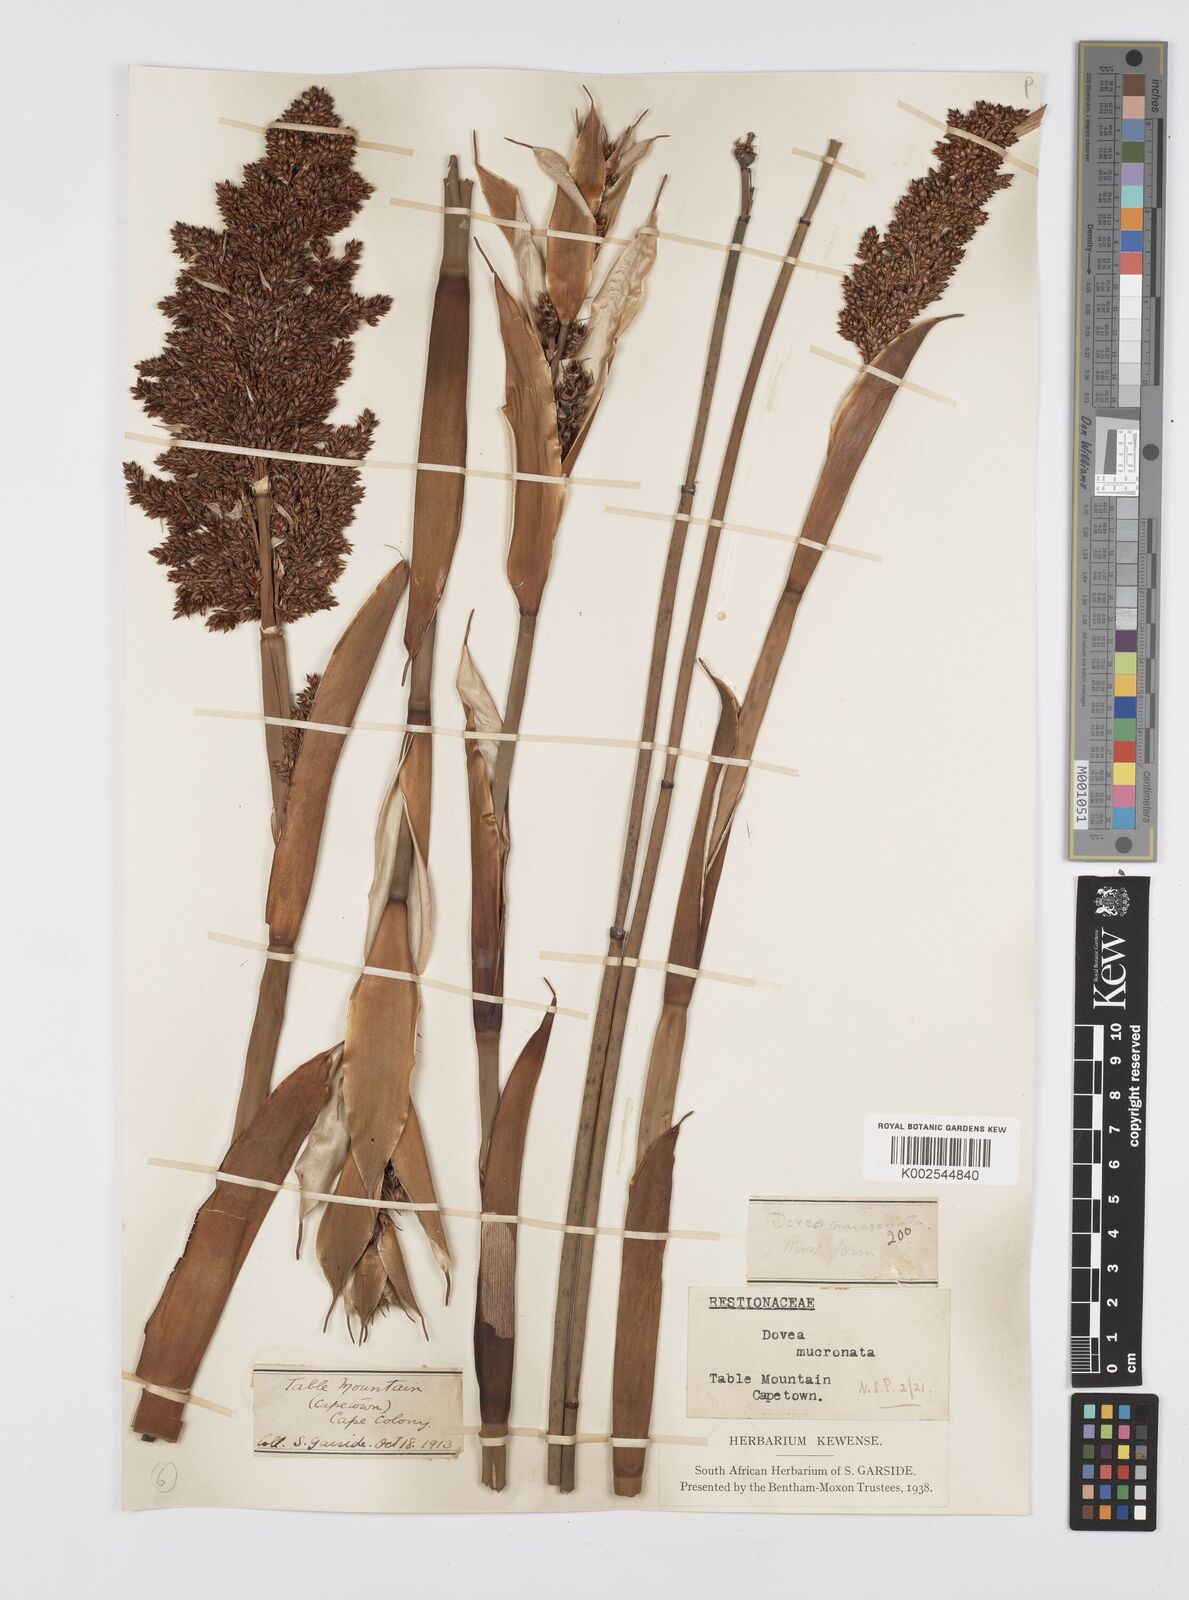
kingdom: Plantae
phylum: Tracheophyta
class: Liliopsida
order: Poales
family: Restionaceae
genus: Elegia
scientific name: Elegia mucronata
